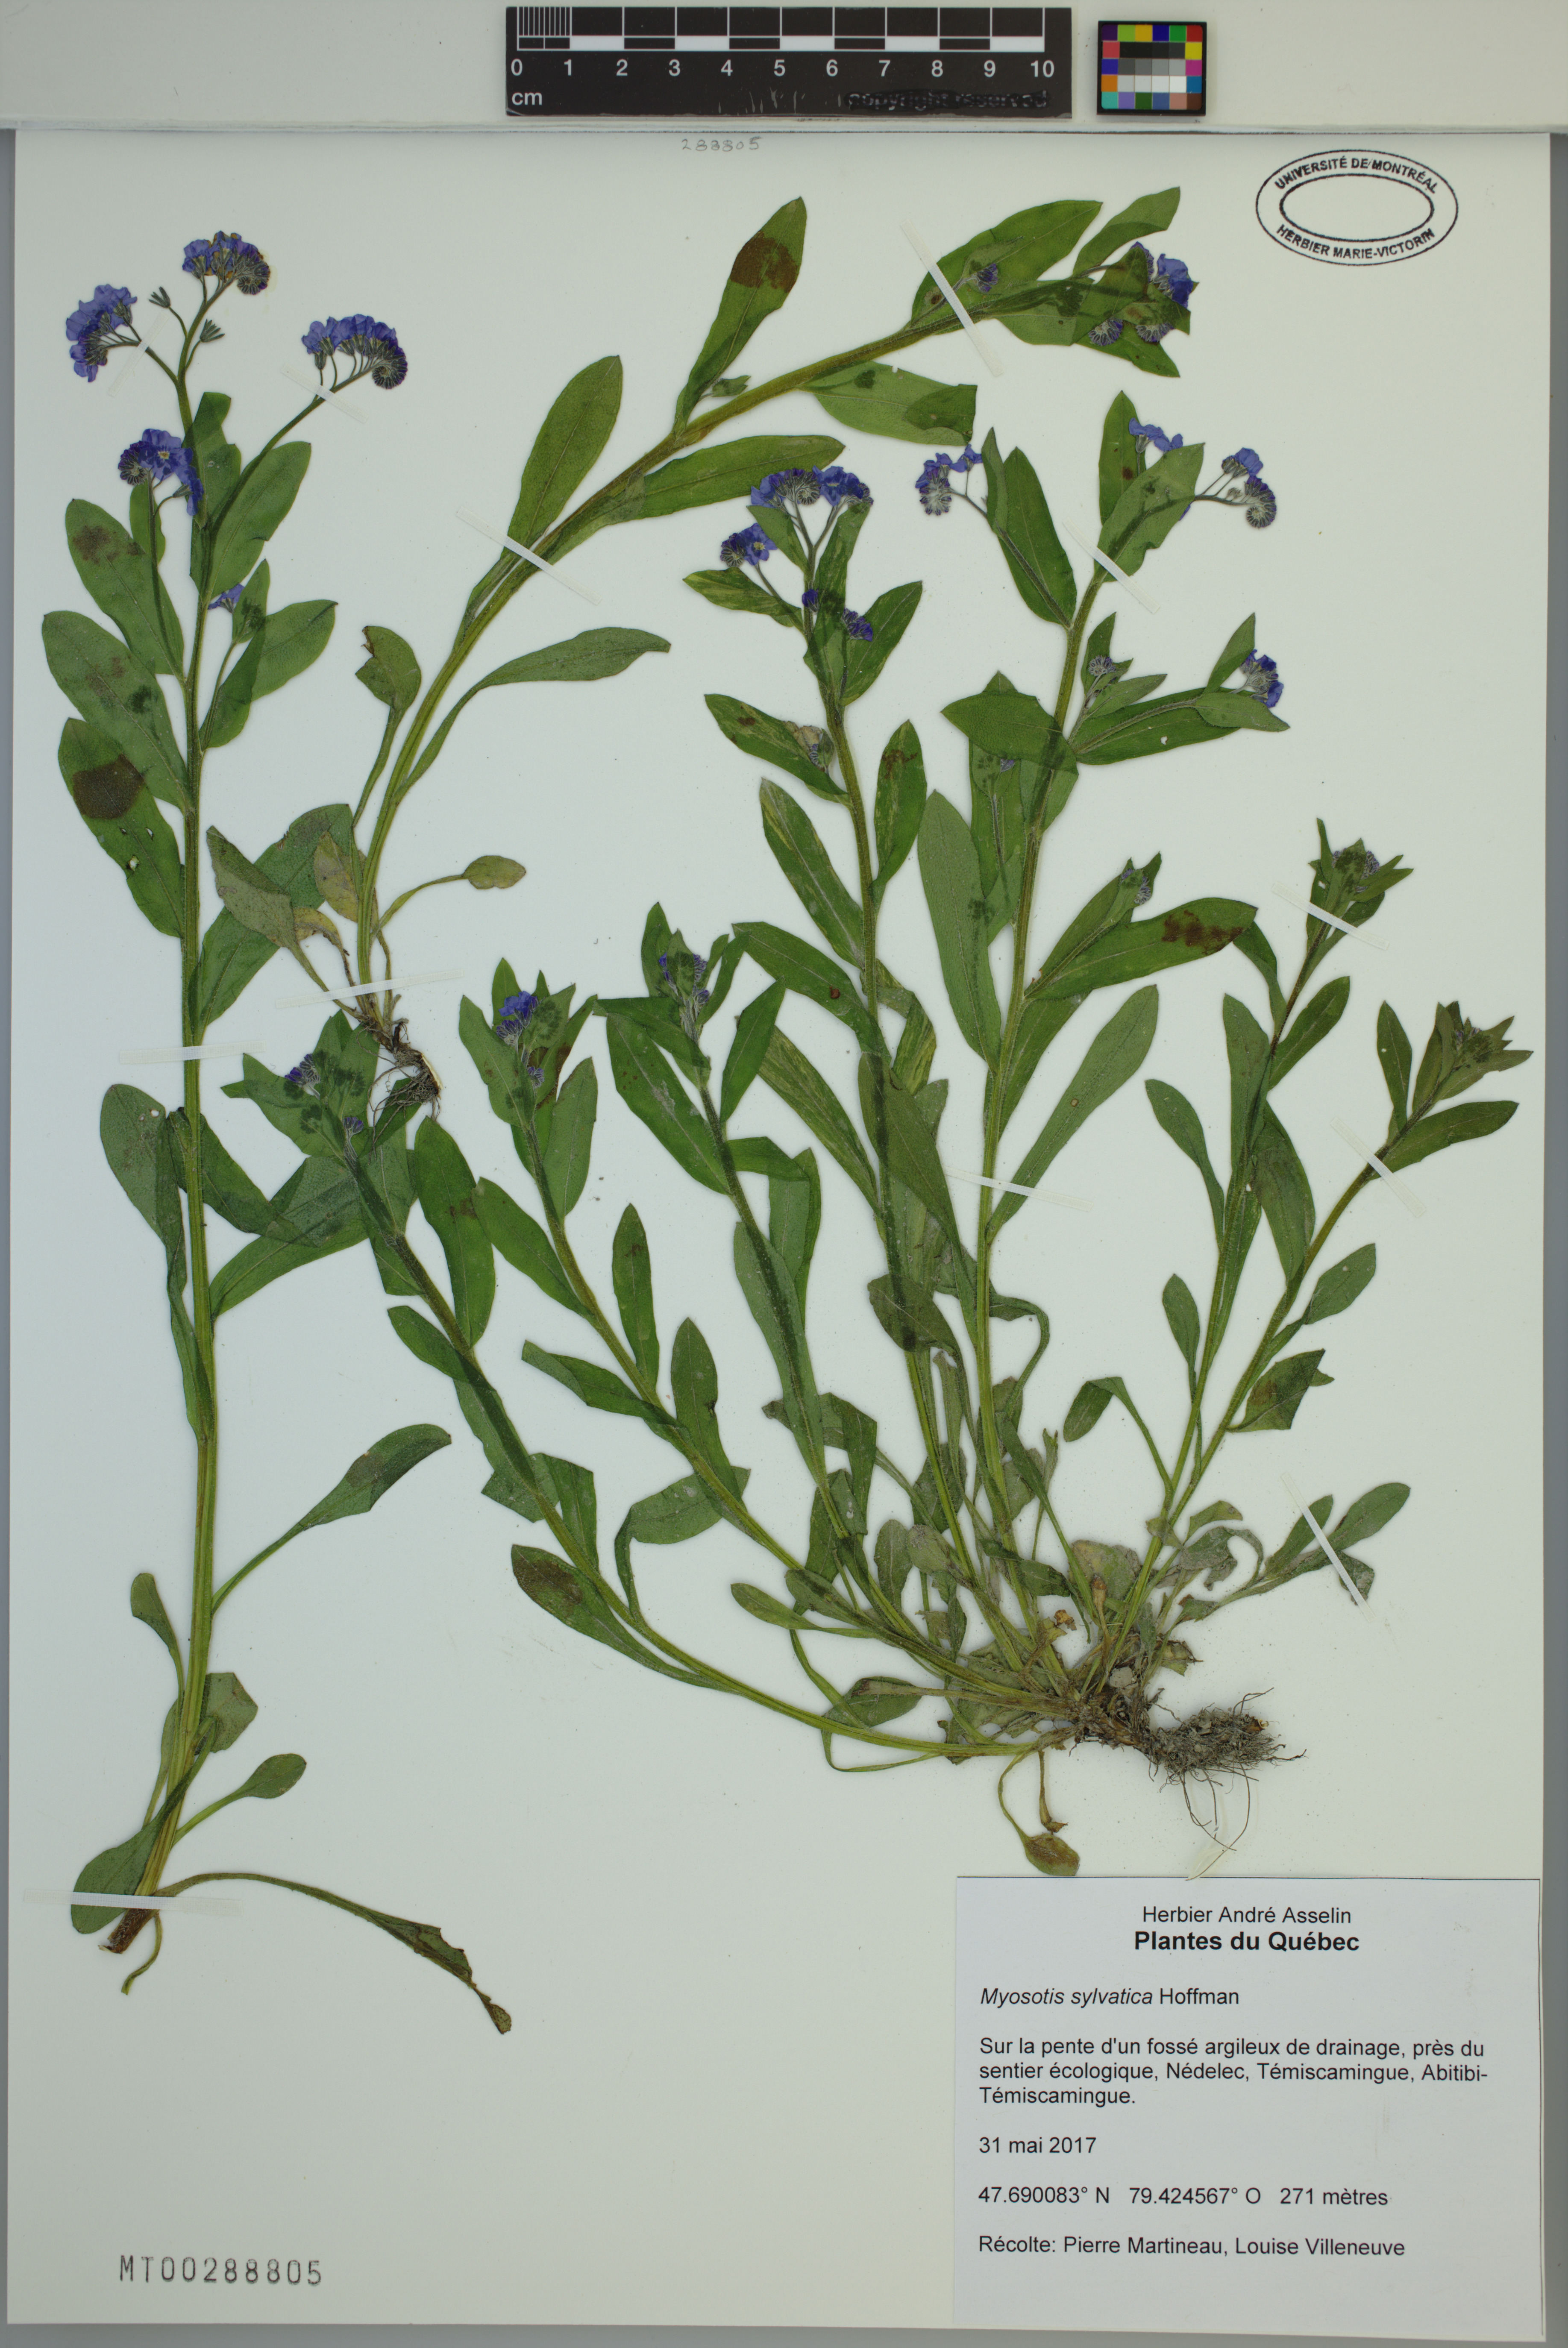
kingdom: Plantae
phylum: Tracheophyta
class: Magnoliopsida
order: Boraginales
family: Boraginaceae
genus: Myosotis
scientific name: Myosotis sylvatica
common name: Wood forget-me-not
